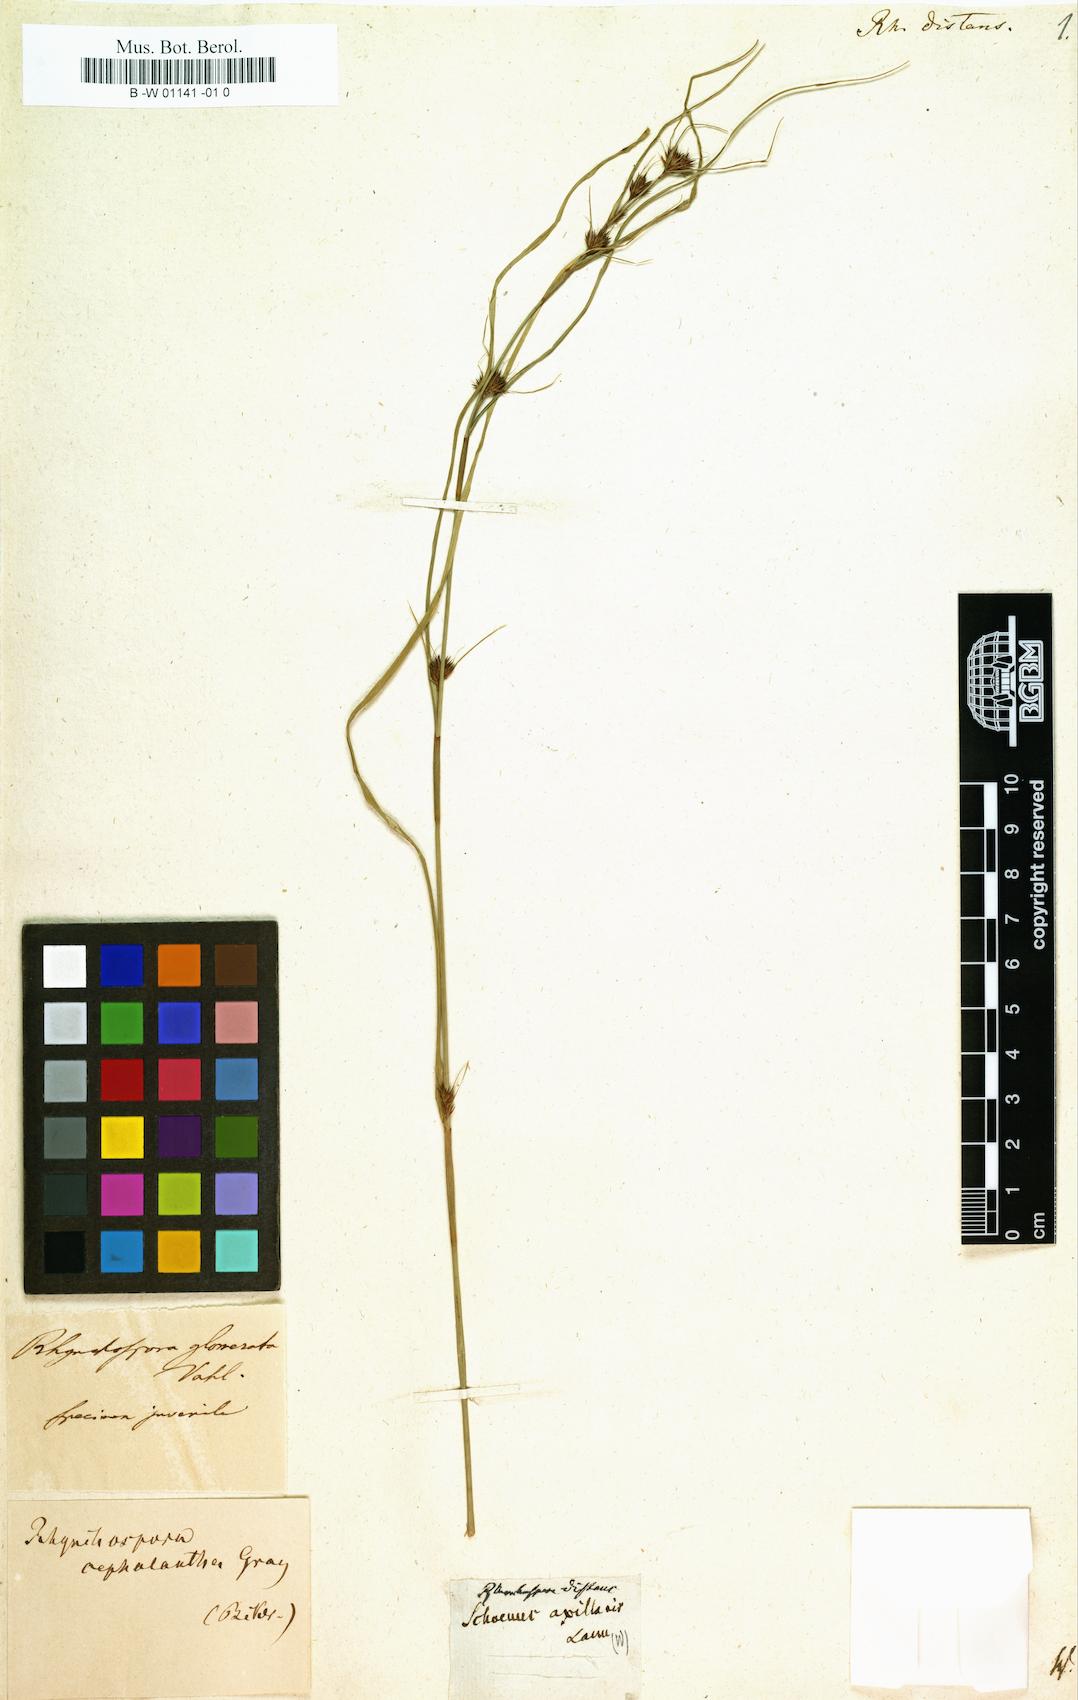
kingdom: Plantae
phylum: Tracheophyta
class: Liliopsida
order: Poales
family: Cyperaceae
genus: Rhynchospora
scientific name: Rhynchospora fascicularis
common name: Fascicled beak sedge
